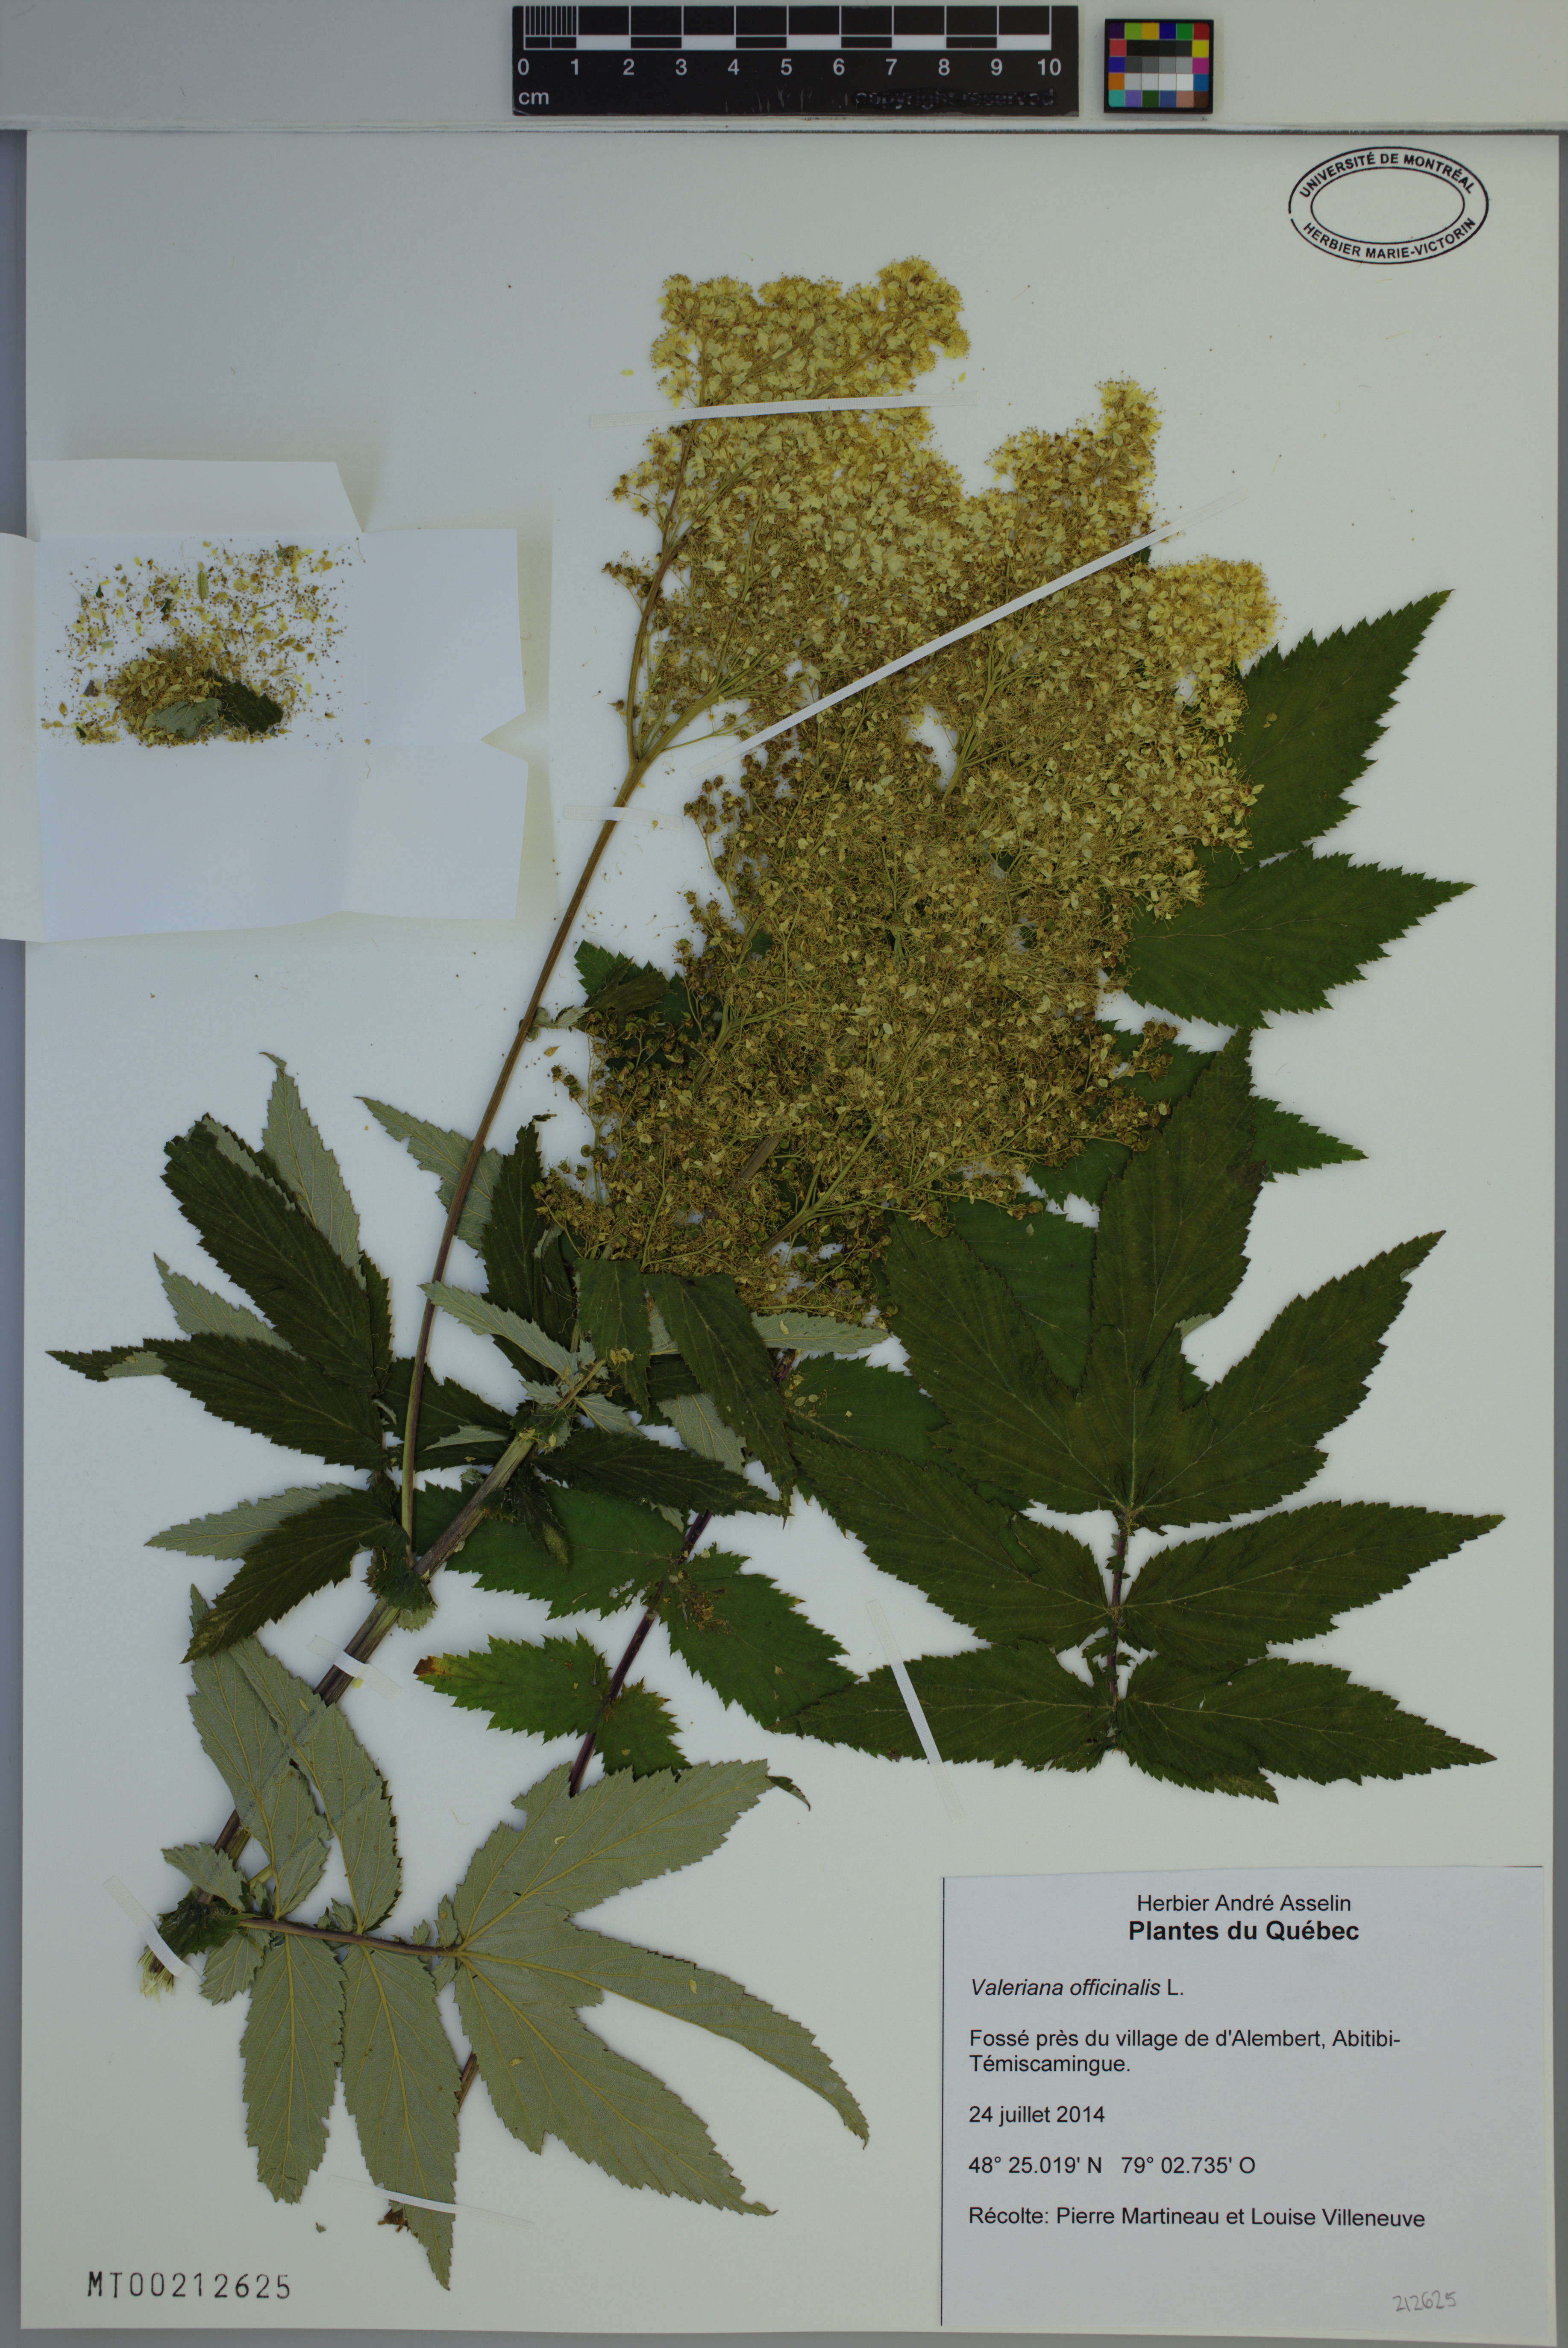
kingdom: Plantae
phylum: Tracheophyta
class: Magnoliopsida
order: Dipsacales
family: Caprifoliaceae
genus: Valeriana
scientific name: Valeriana officinalis
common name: Common valerian
